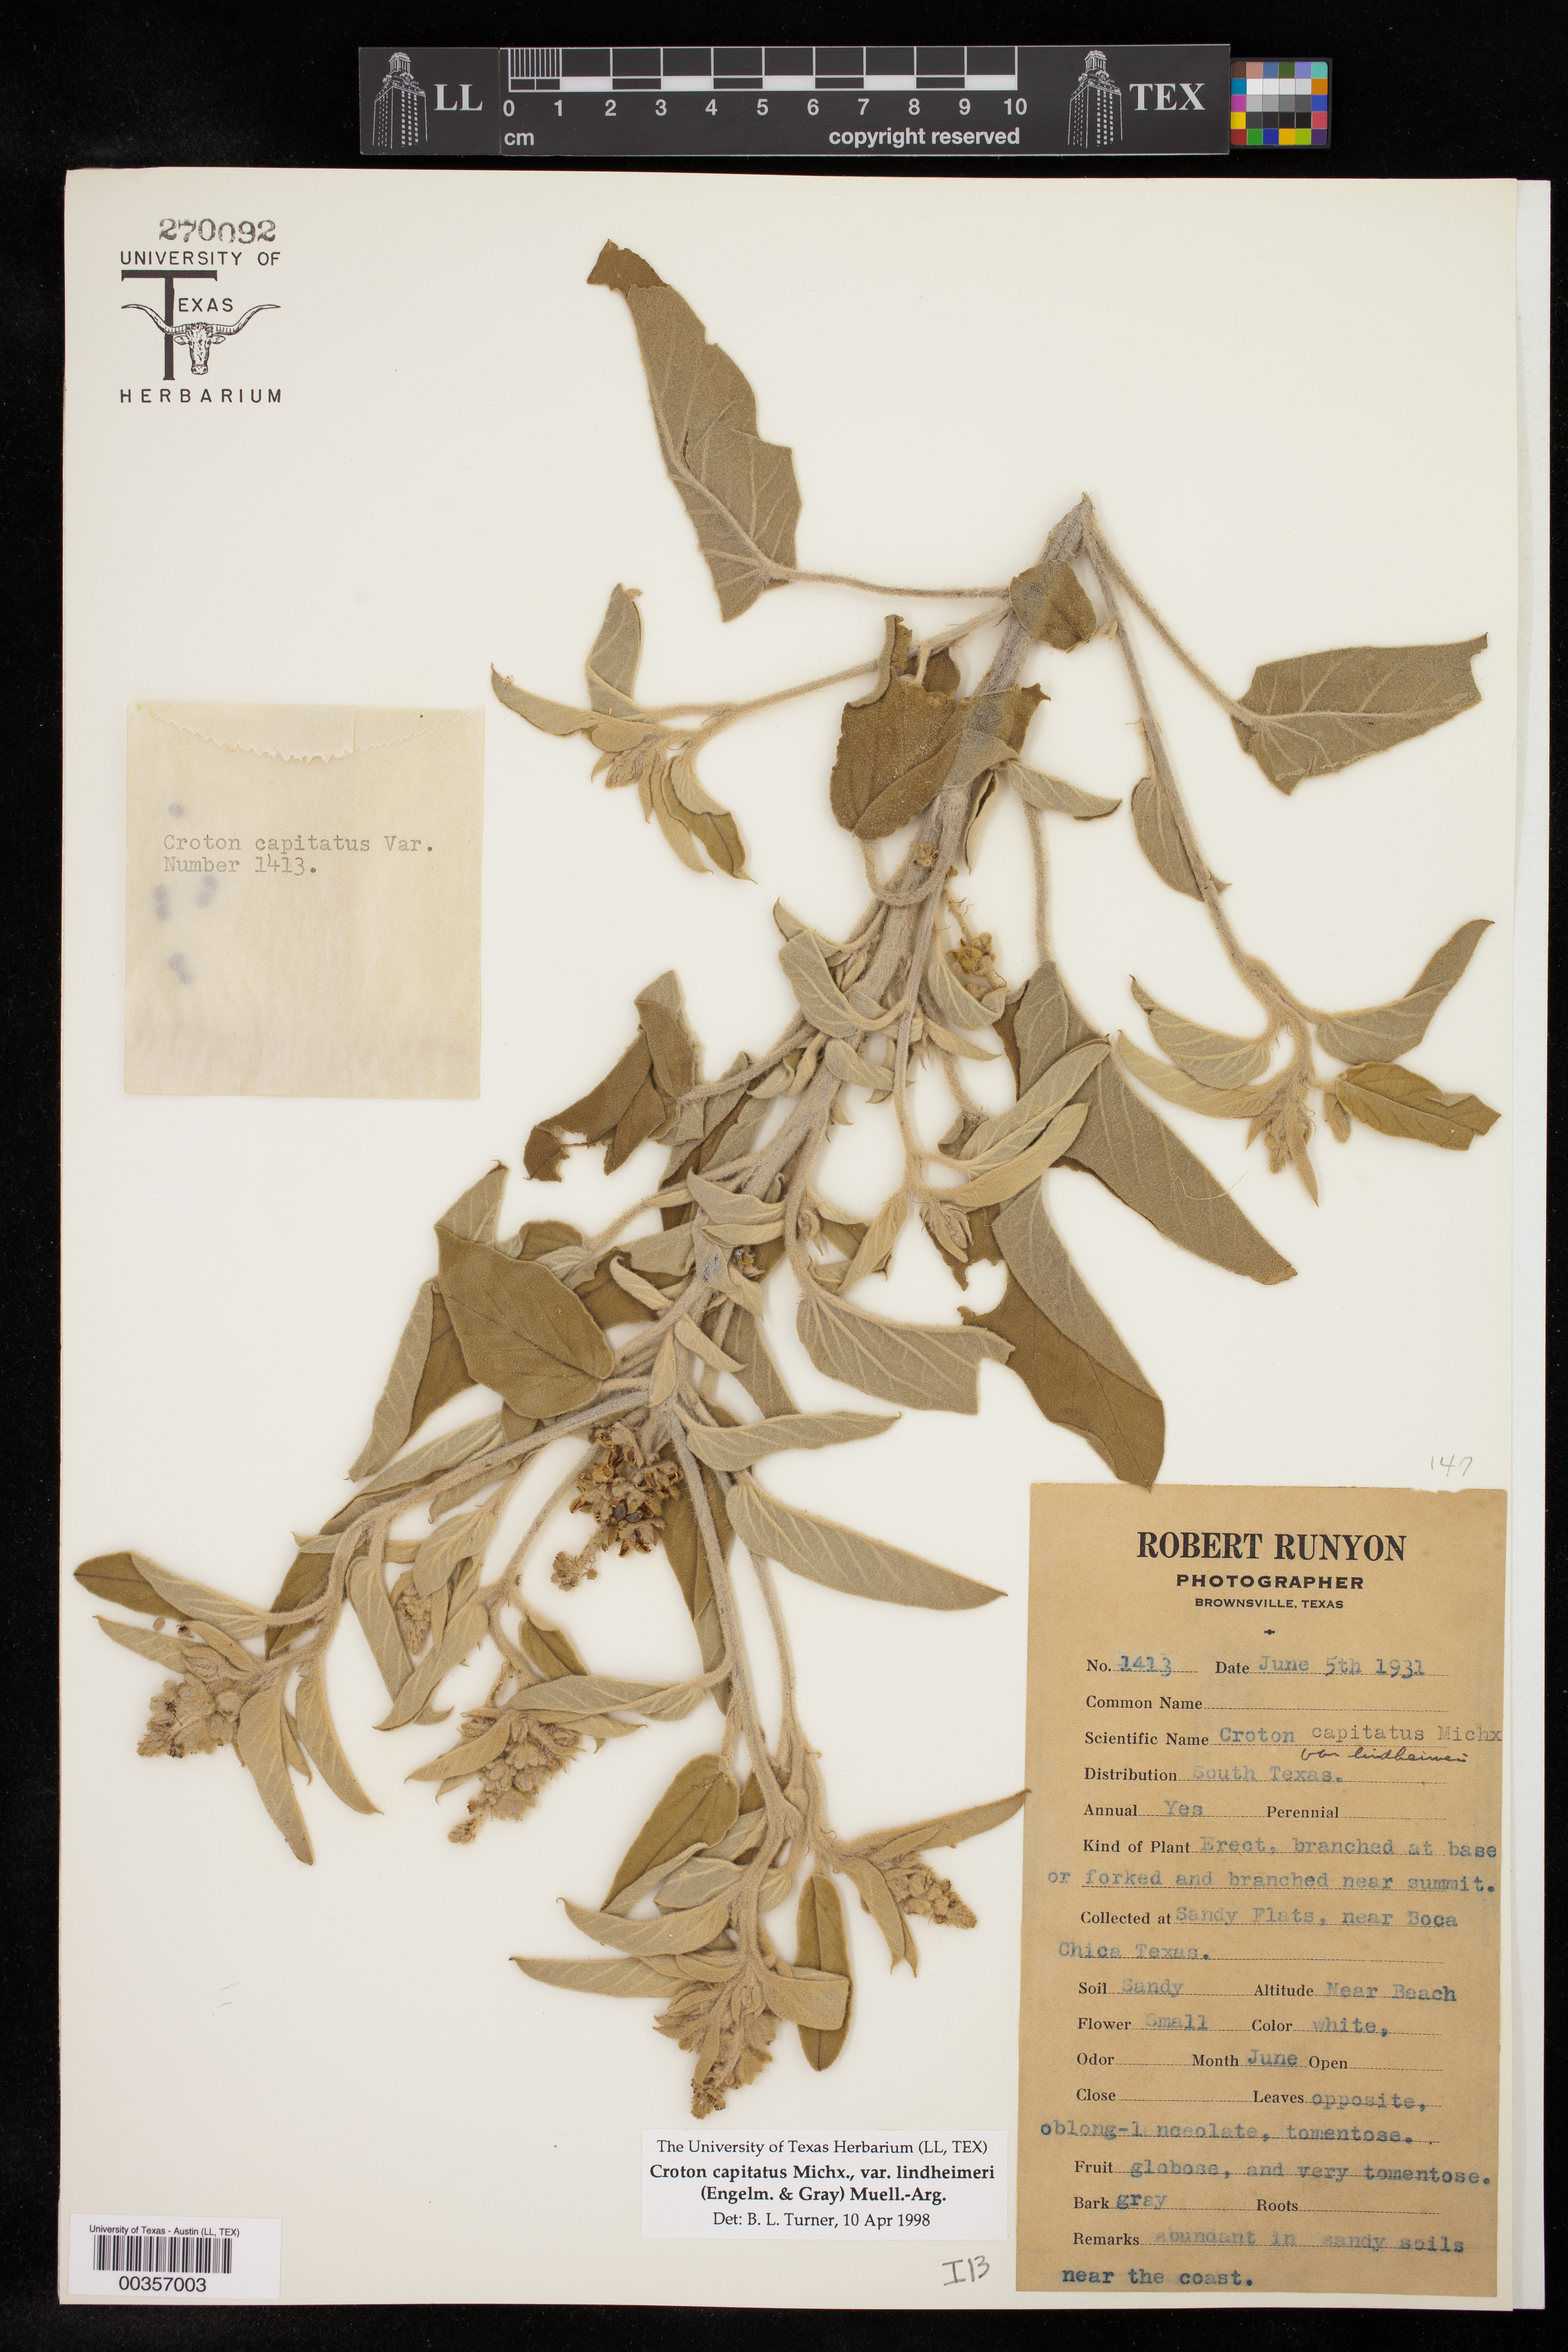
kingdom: Plantae
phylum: Tracheophyta
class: Magnoliopsida
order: Malpighiales
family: Euphorbiaceae
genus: Croton
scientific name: Croton lindheimeri
